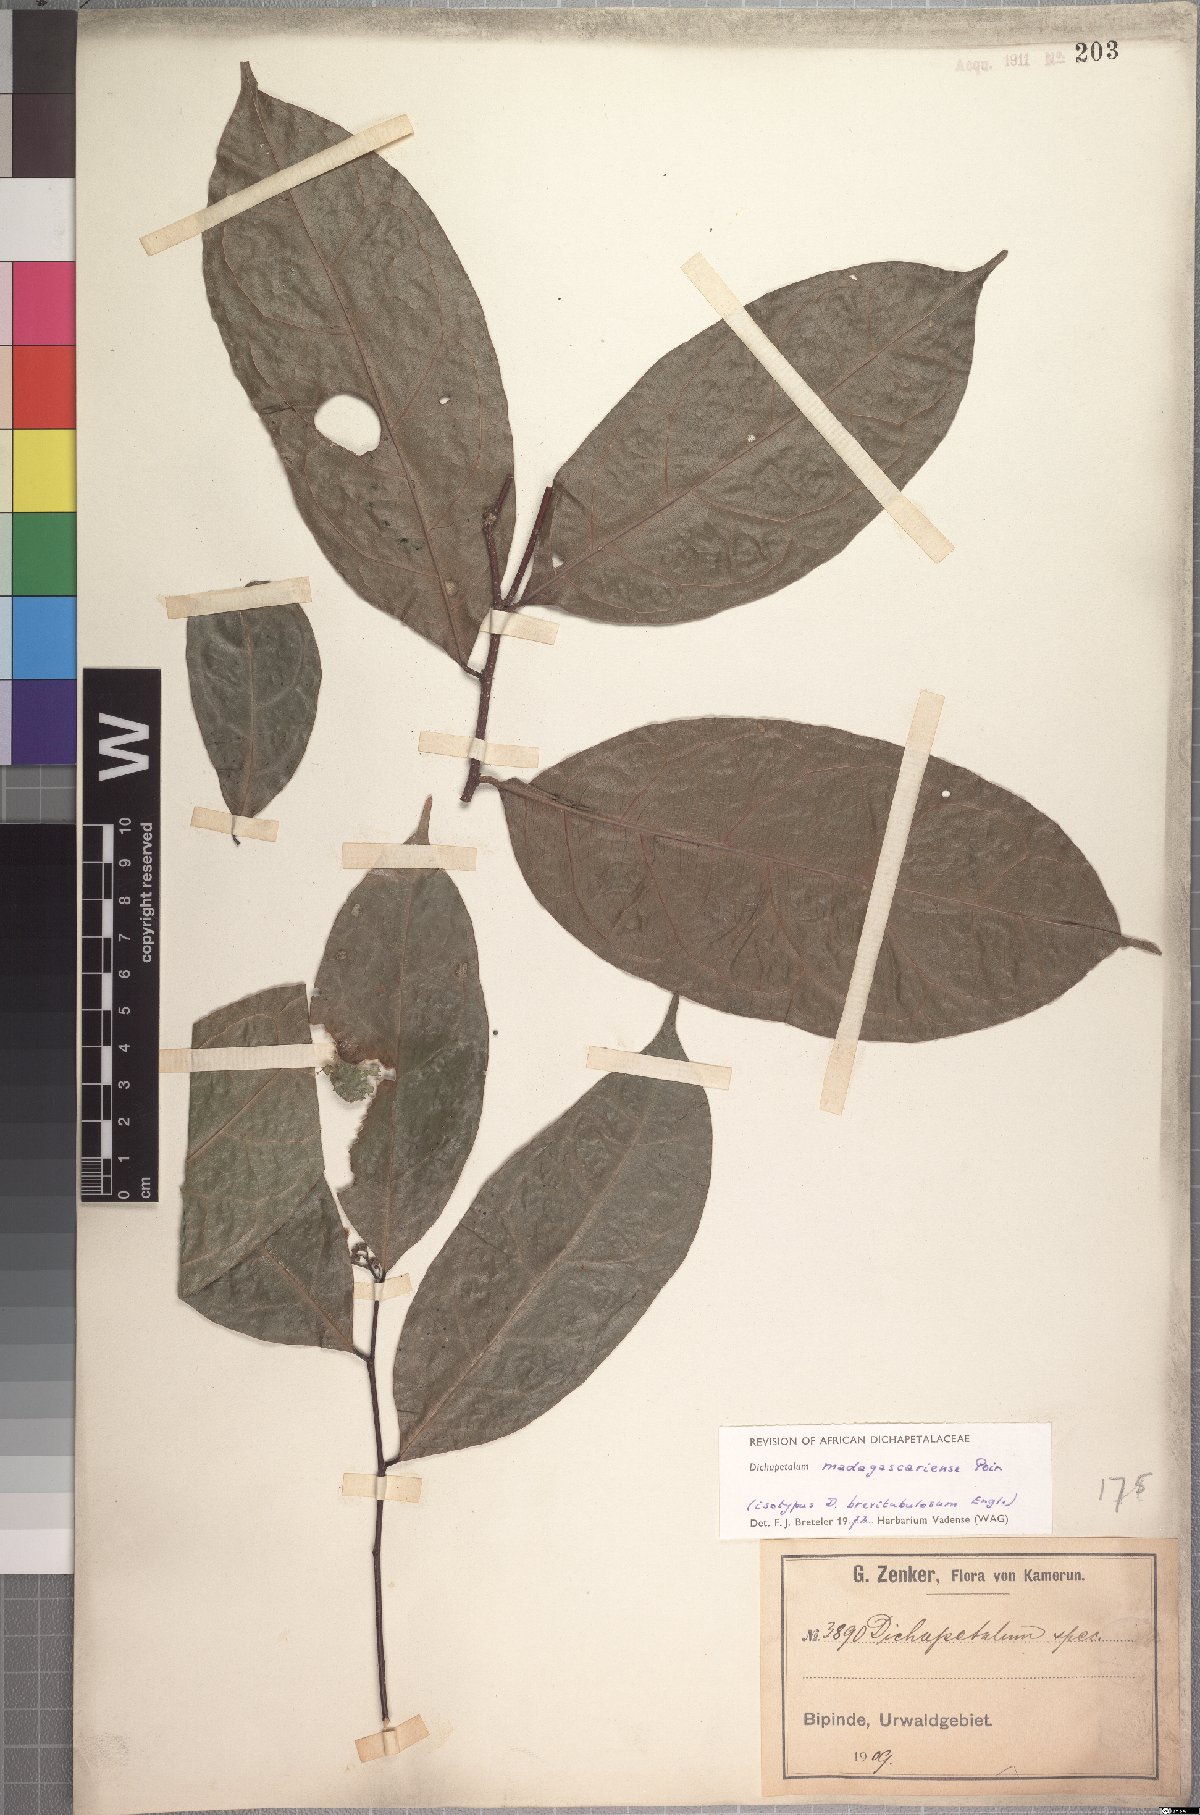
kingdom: Plantae
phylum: Tracheophyta
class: Magnoliopsida
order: Malpighiales
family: Dichapetalaceae
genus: Dichapetalum
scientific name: Dichapetalum madagascariense
